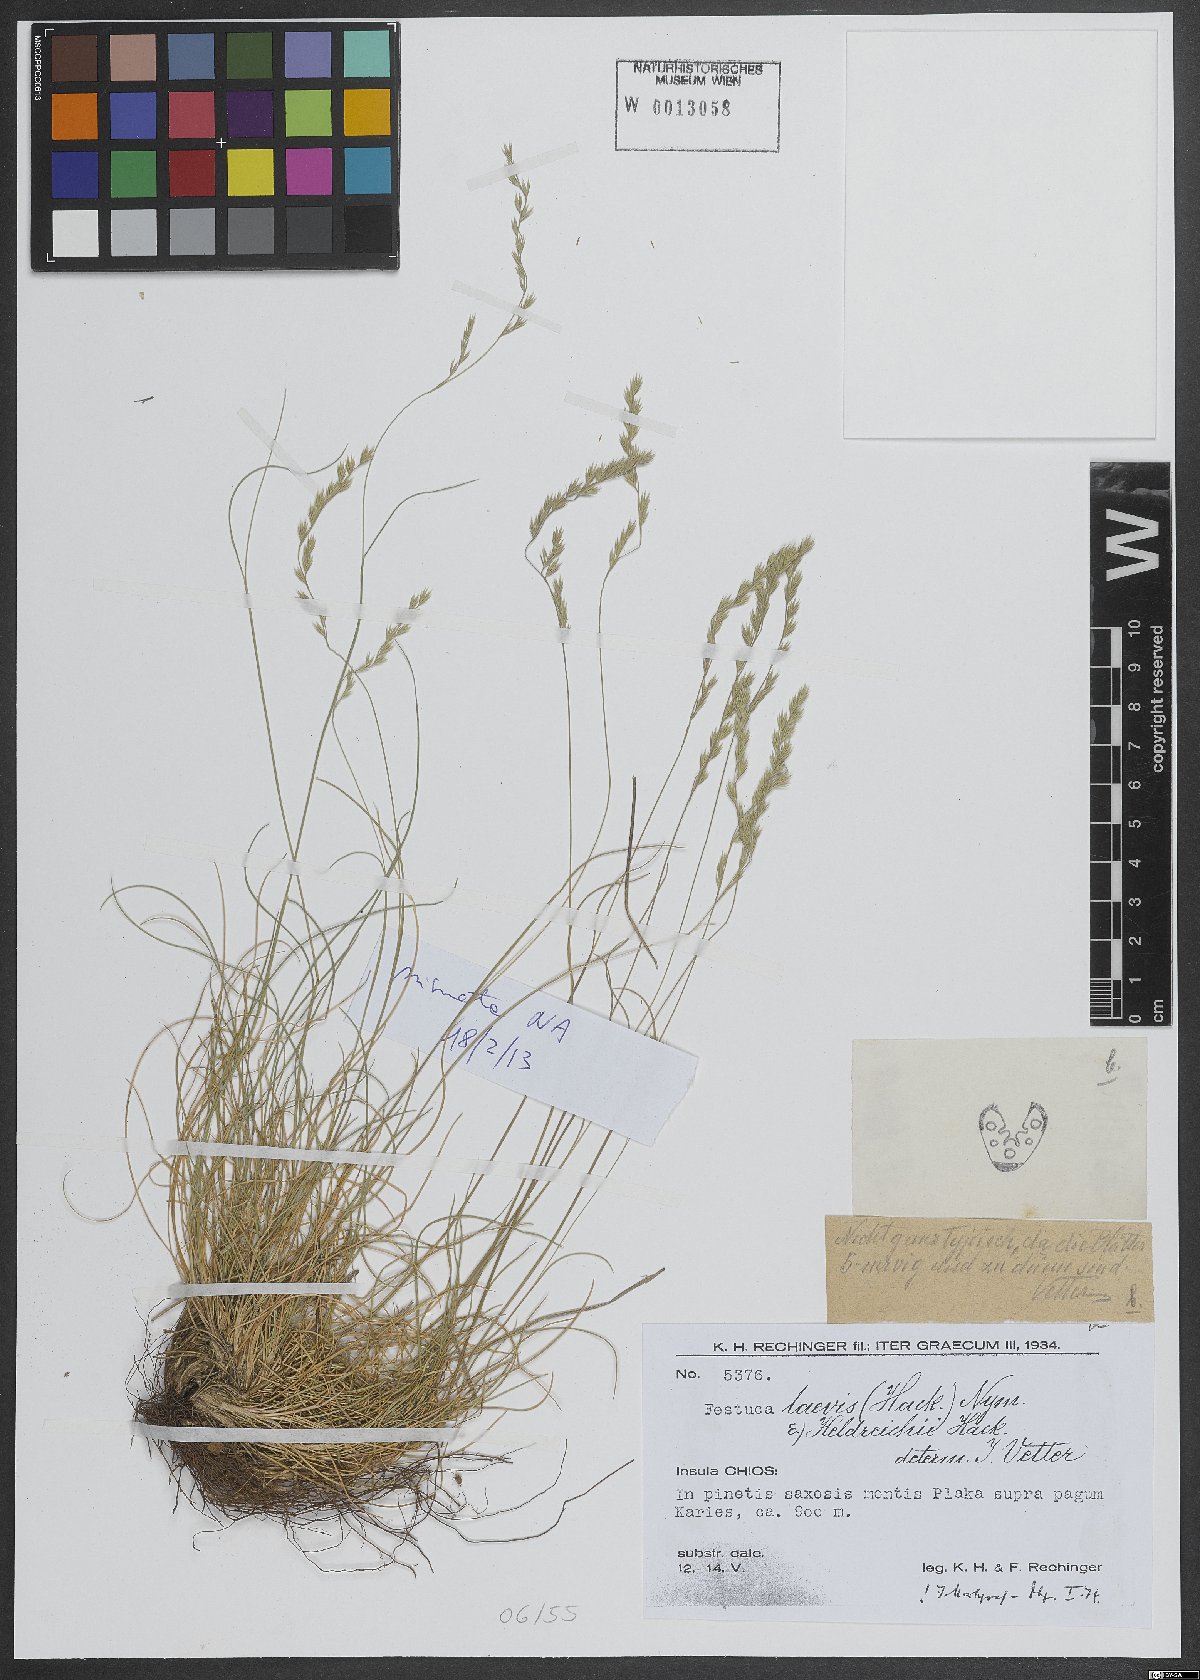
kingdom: Plantae
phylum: Tracheophyta
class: Liliopsida
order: Poales
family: Poaceae
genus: Festuca
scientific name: Festuca laevis
